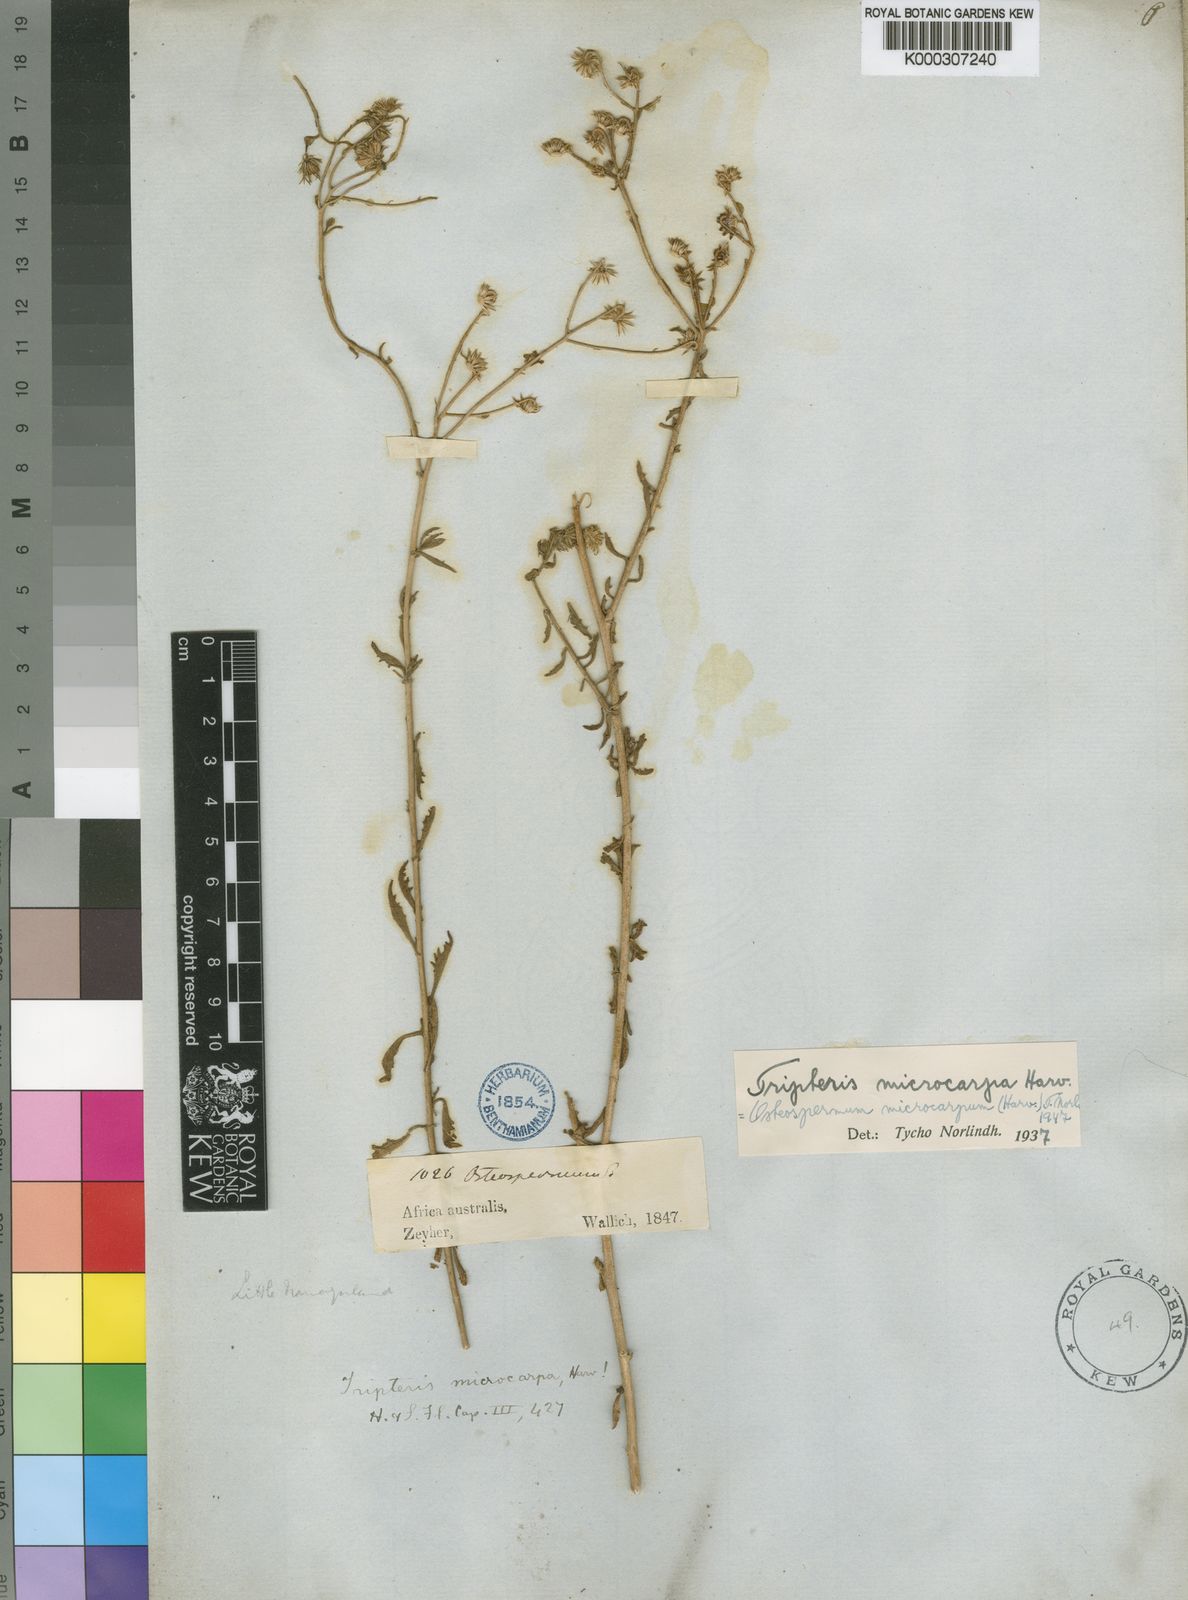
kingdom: Plantae
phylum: Tracheophyta
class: Magnoliopsida
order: Asterales
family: Asteraceae
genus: Osteospermum
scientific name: Osteospermum microcarpum
